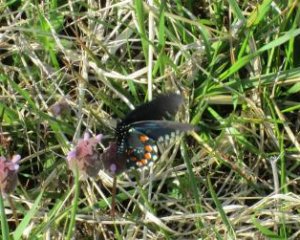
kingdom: Animalia
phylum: Arthropoda
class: Insecta
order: Lepidoptera
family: Papilionidae
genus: Battus
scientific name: Battus philenor
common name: Pipevine Swallowtail
